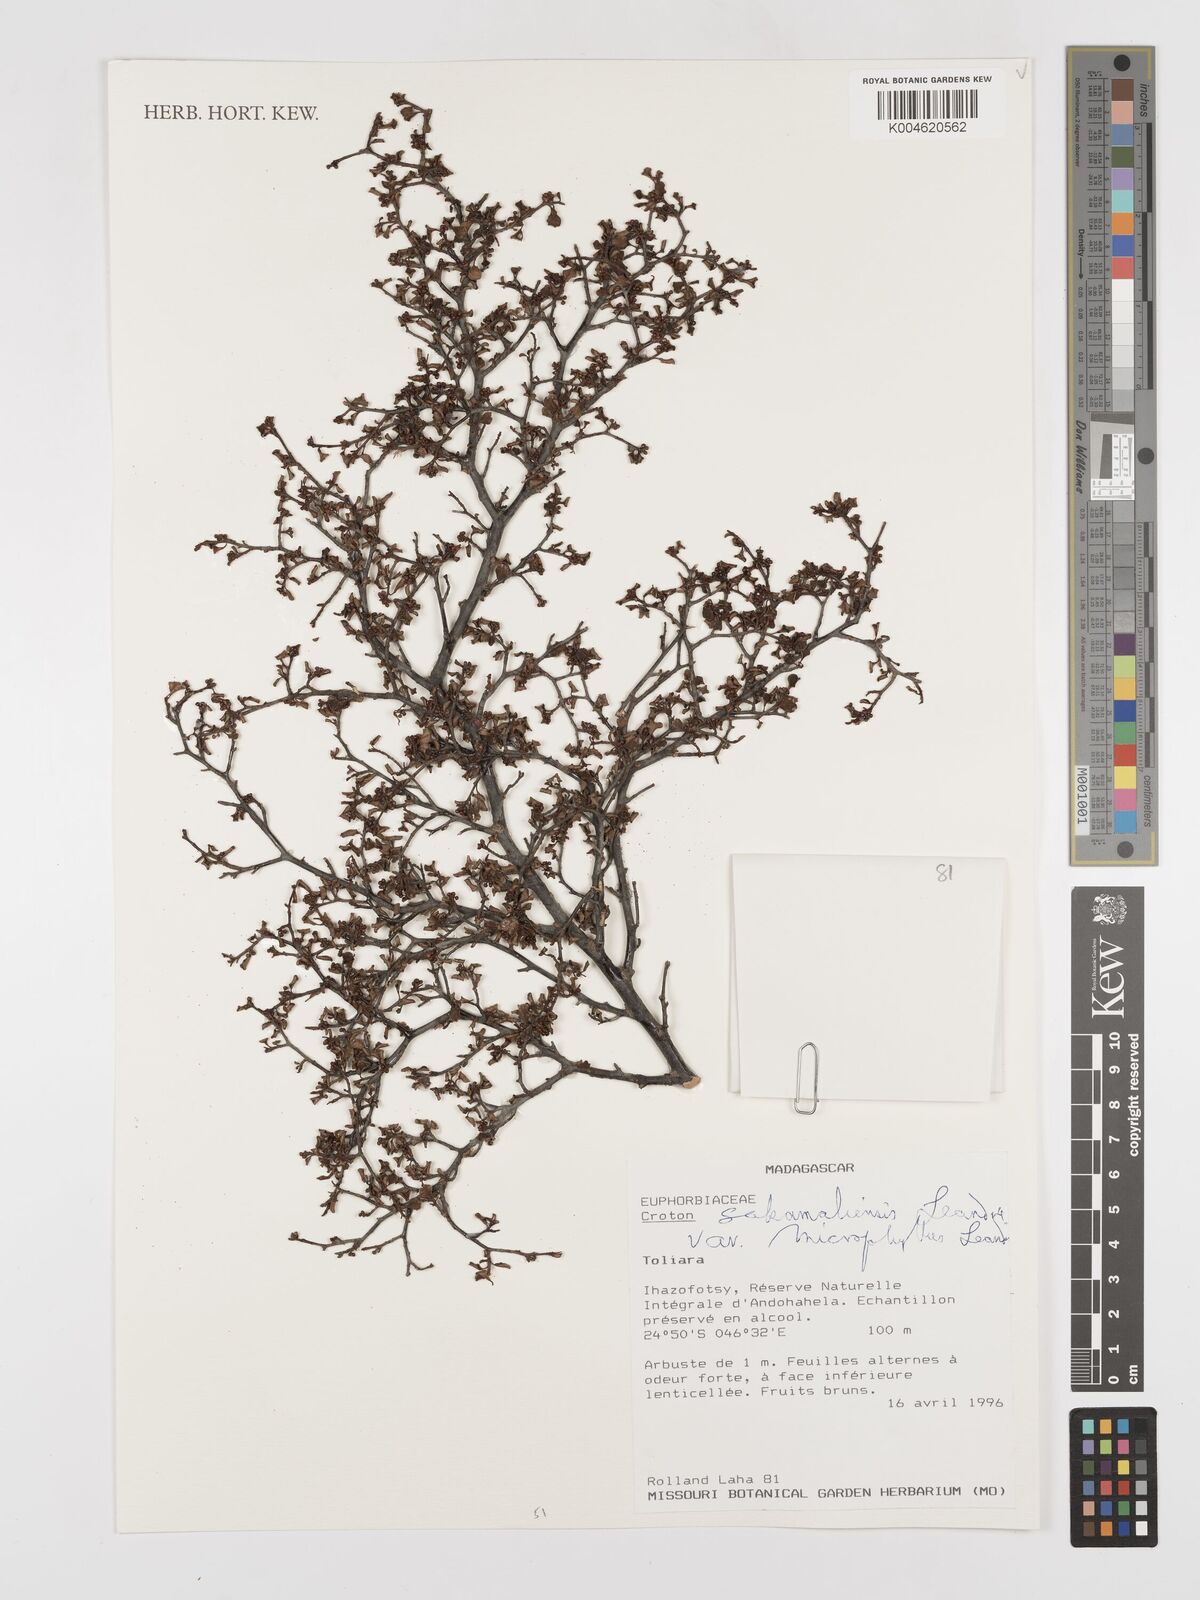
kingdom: Plantae
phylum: Tracheophyta
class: Magnoliopsida
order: Malpighiales
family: Euphorbiaceae
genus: Croton
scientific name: Croton sakamaliensis
